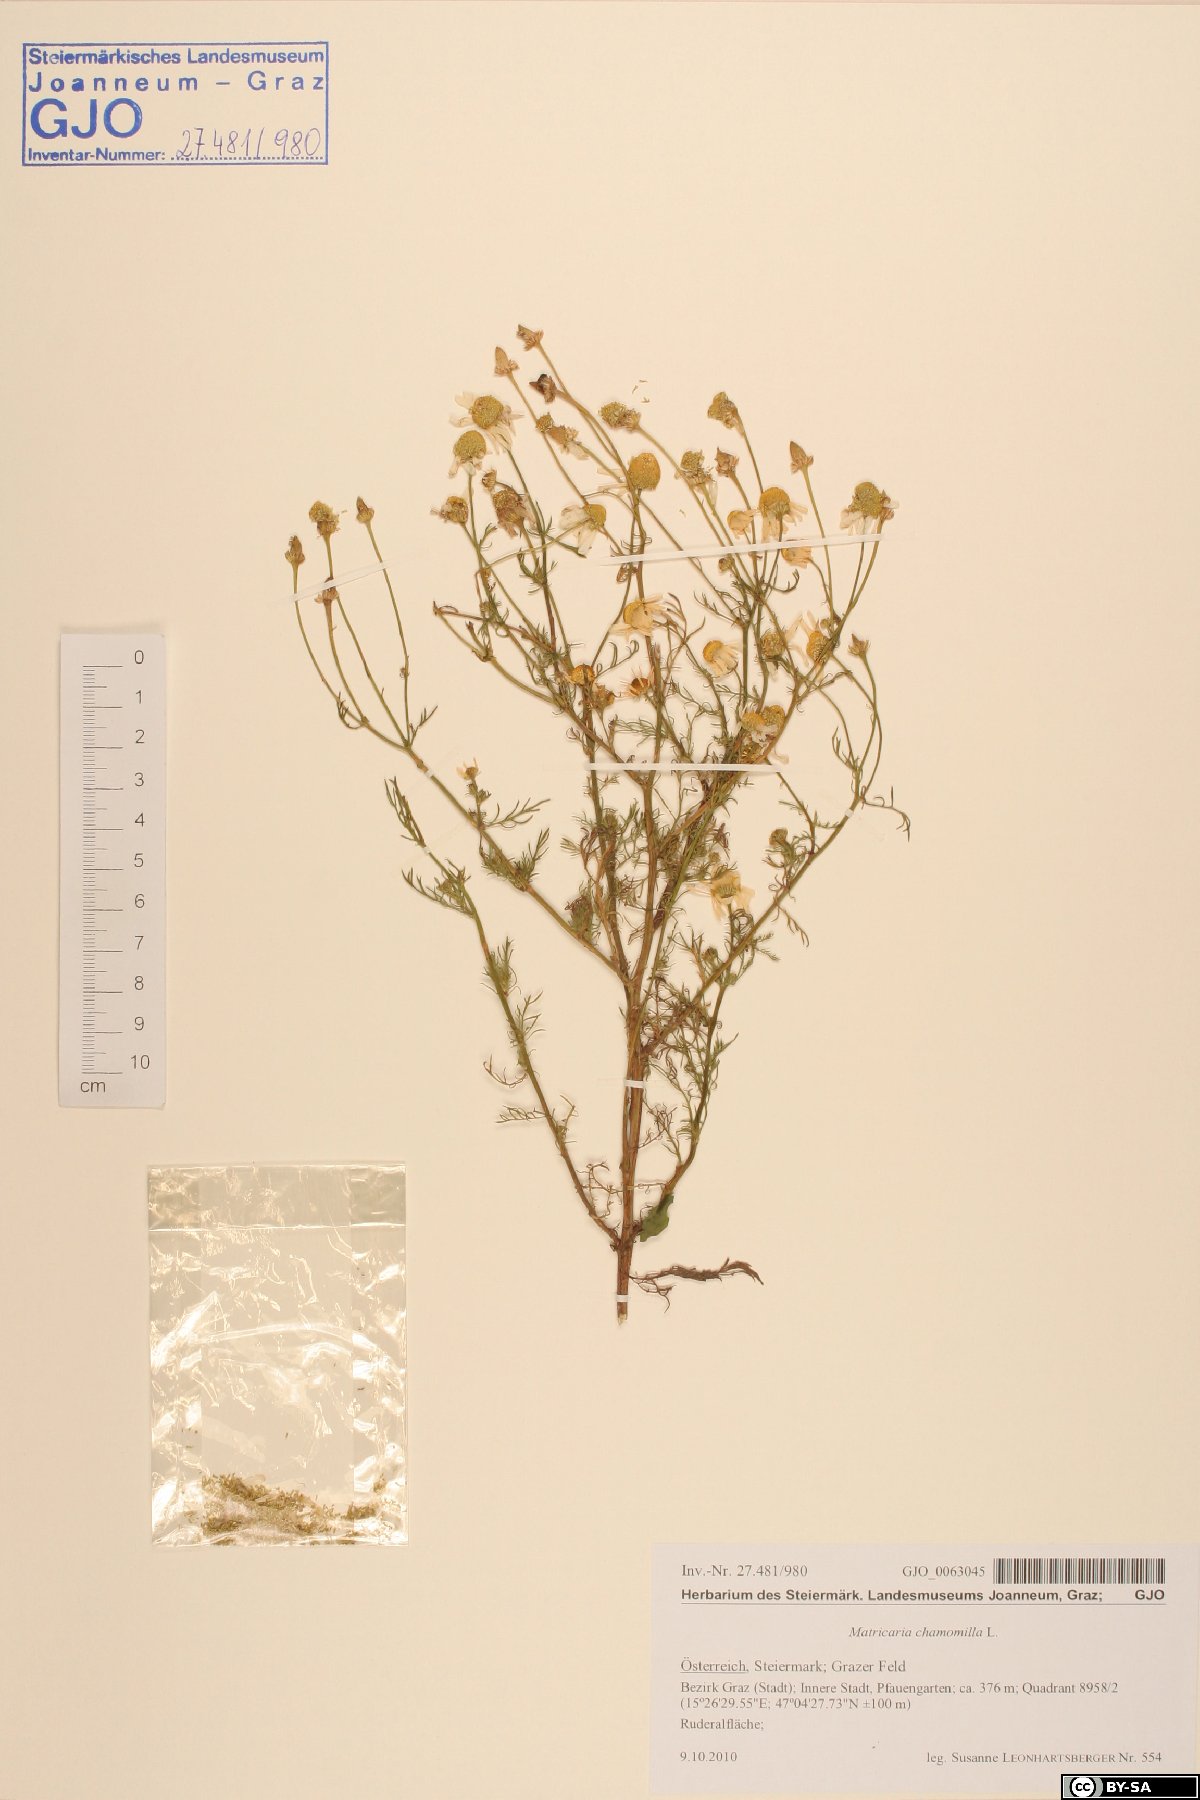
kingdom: Plantae
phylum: Tracheophyta
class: Magnoliopsida
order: Asterales
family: Asteraceae
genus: Matricaria
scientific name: Matricaria chamomilla
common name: Scented mayweed
